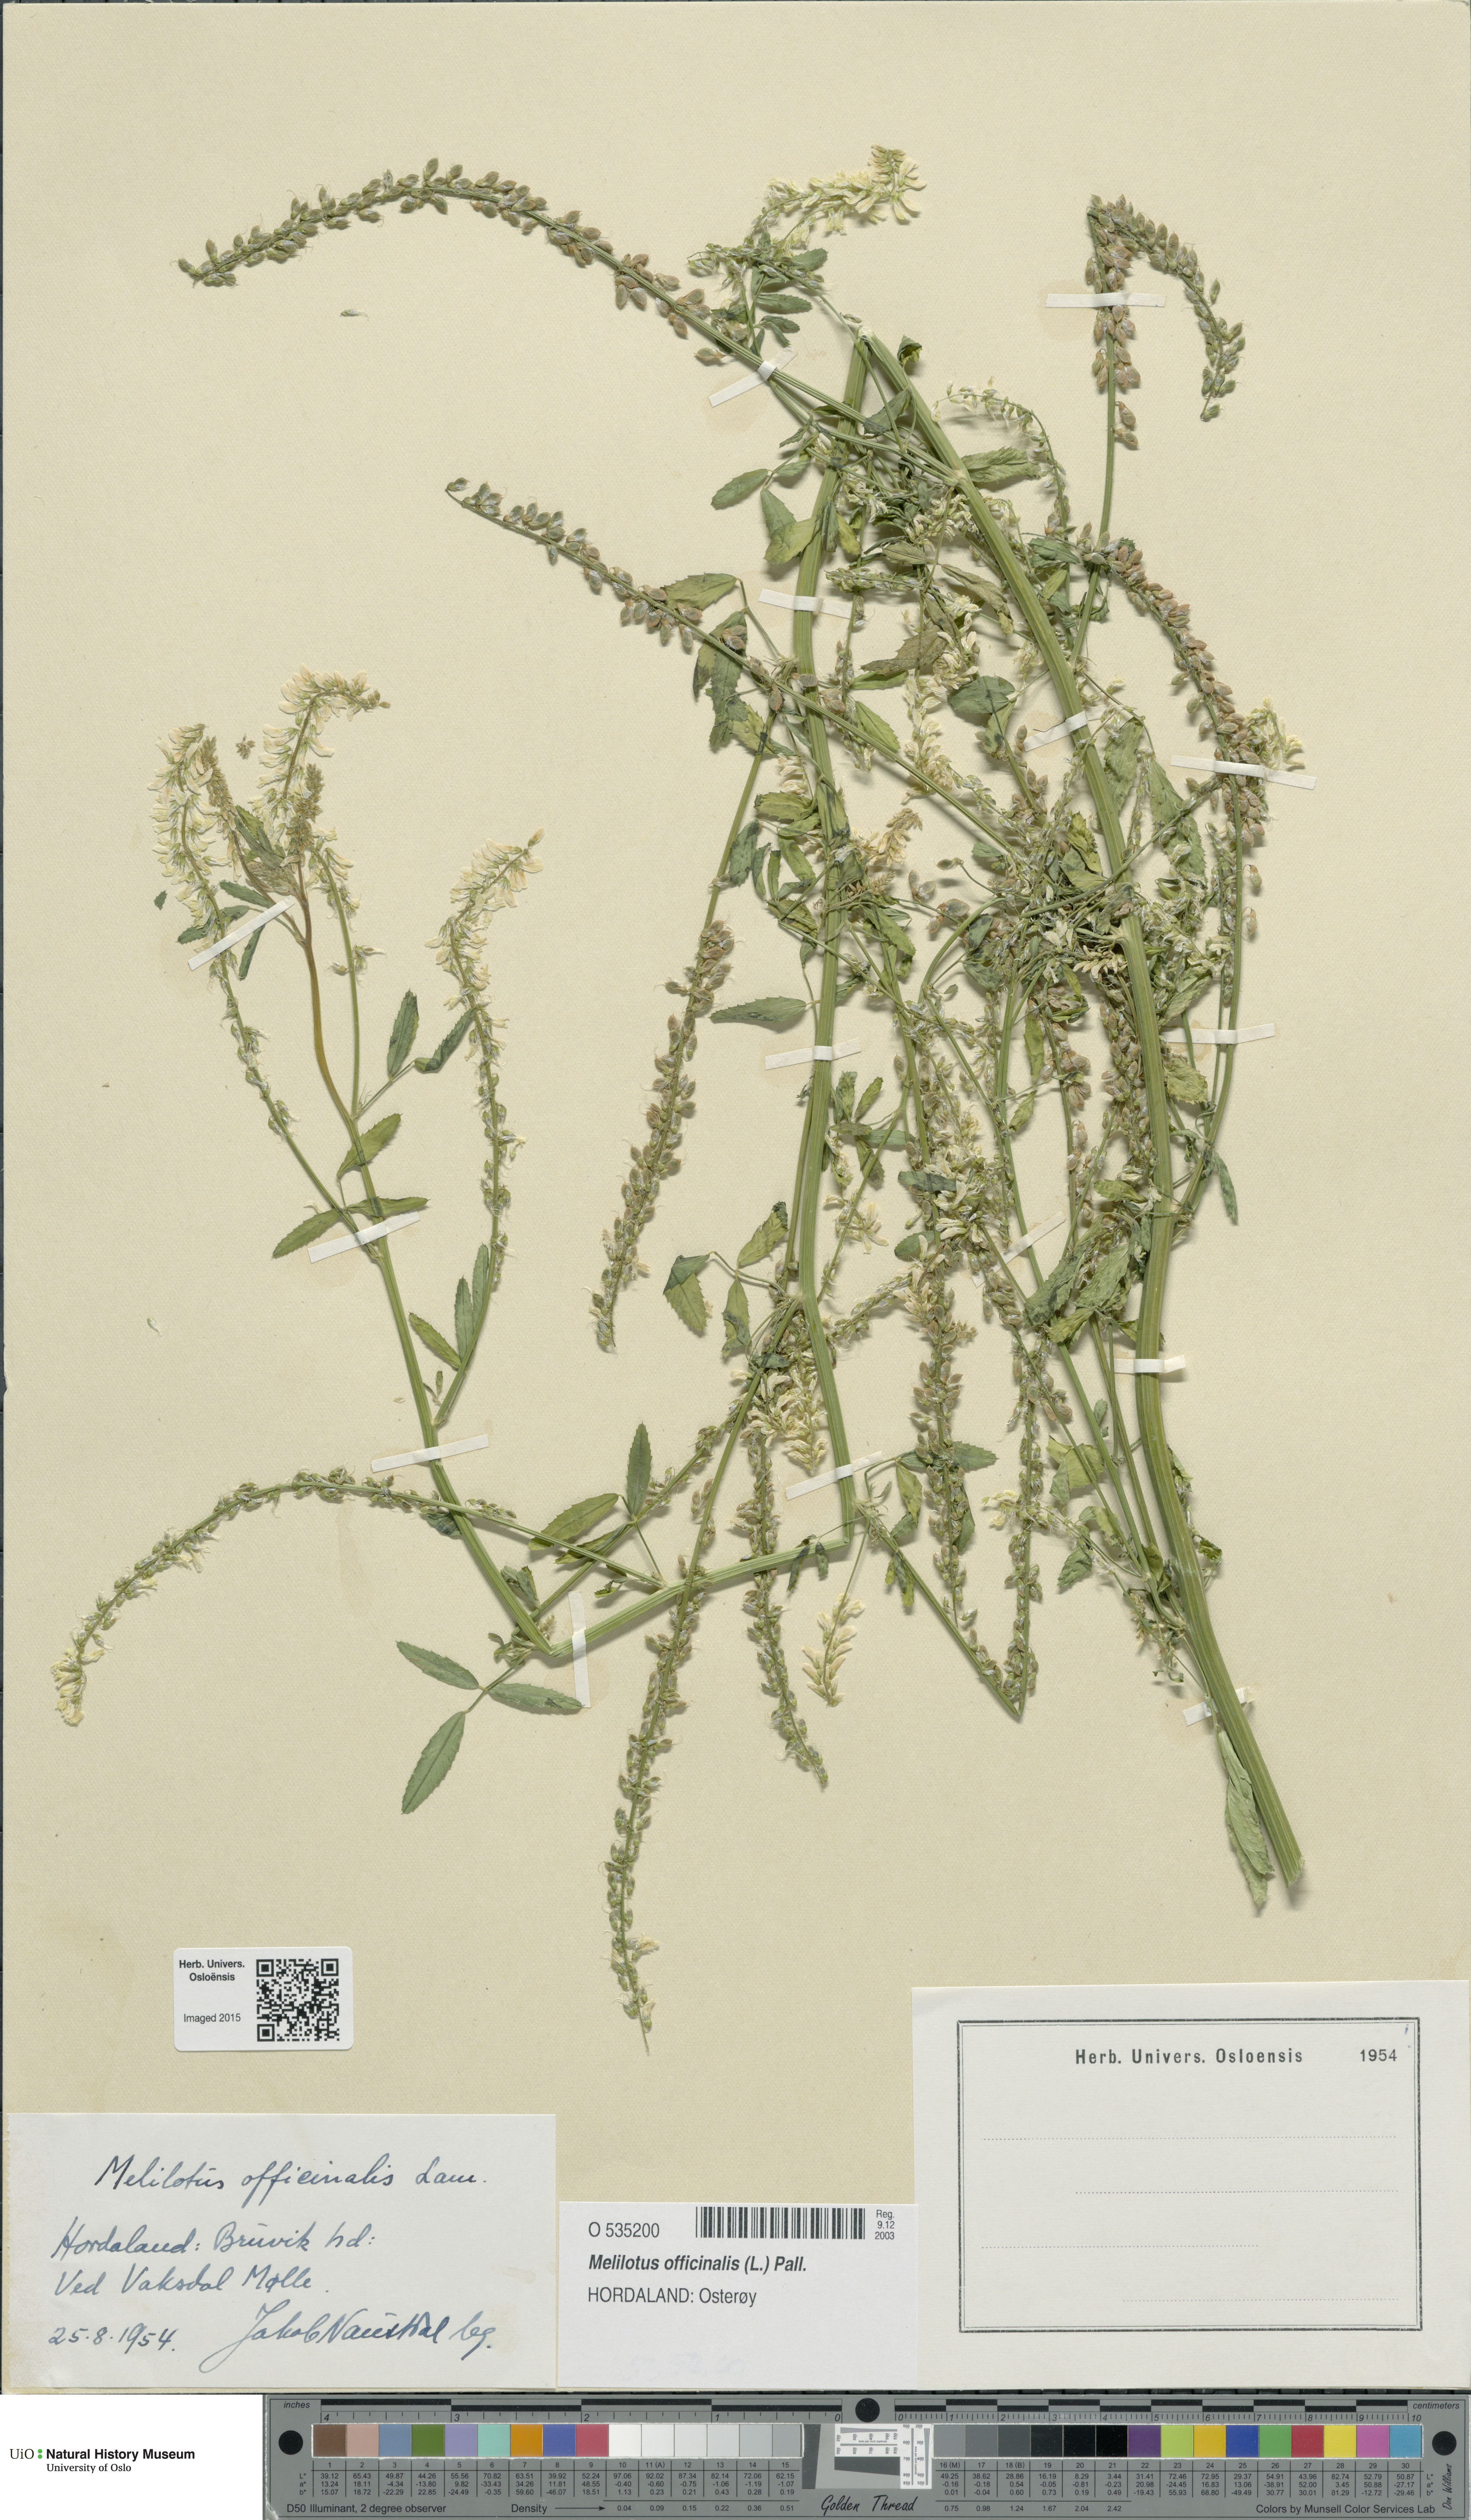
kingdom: Plantae
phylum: Tracheophyta
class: Magnoliopsida
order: Fabales
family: Fabaceae
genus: Melilotus
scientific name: Melilotus officinalis
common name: Sweetclover
